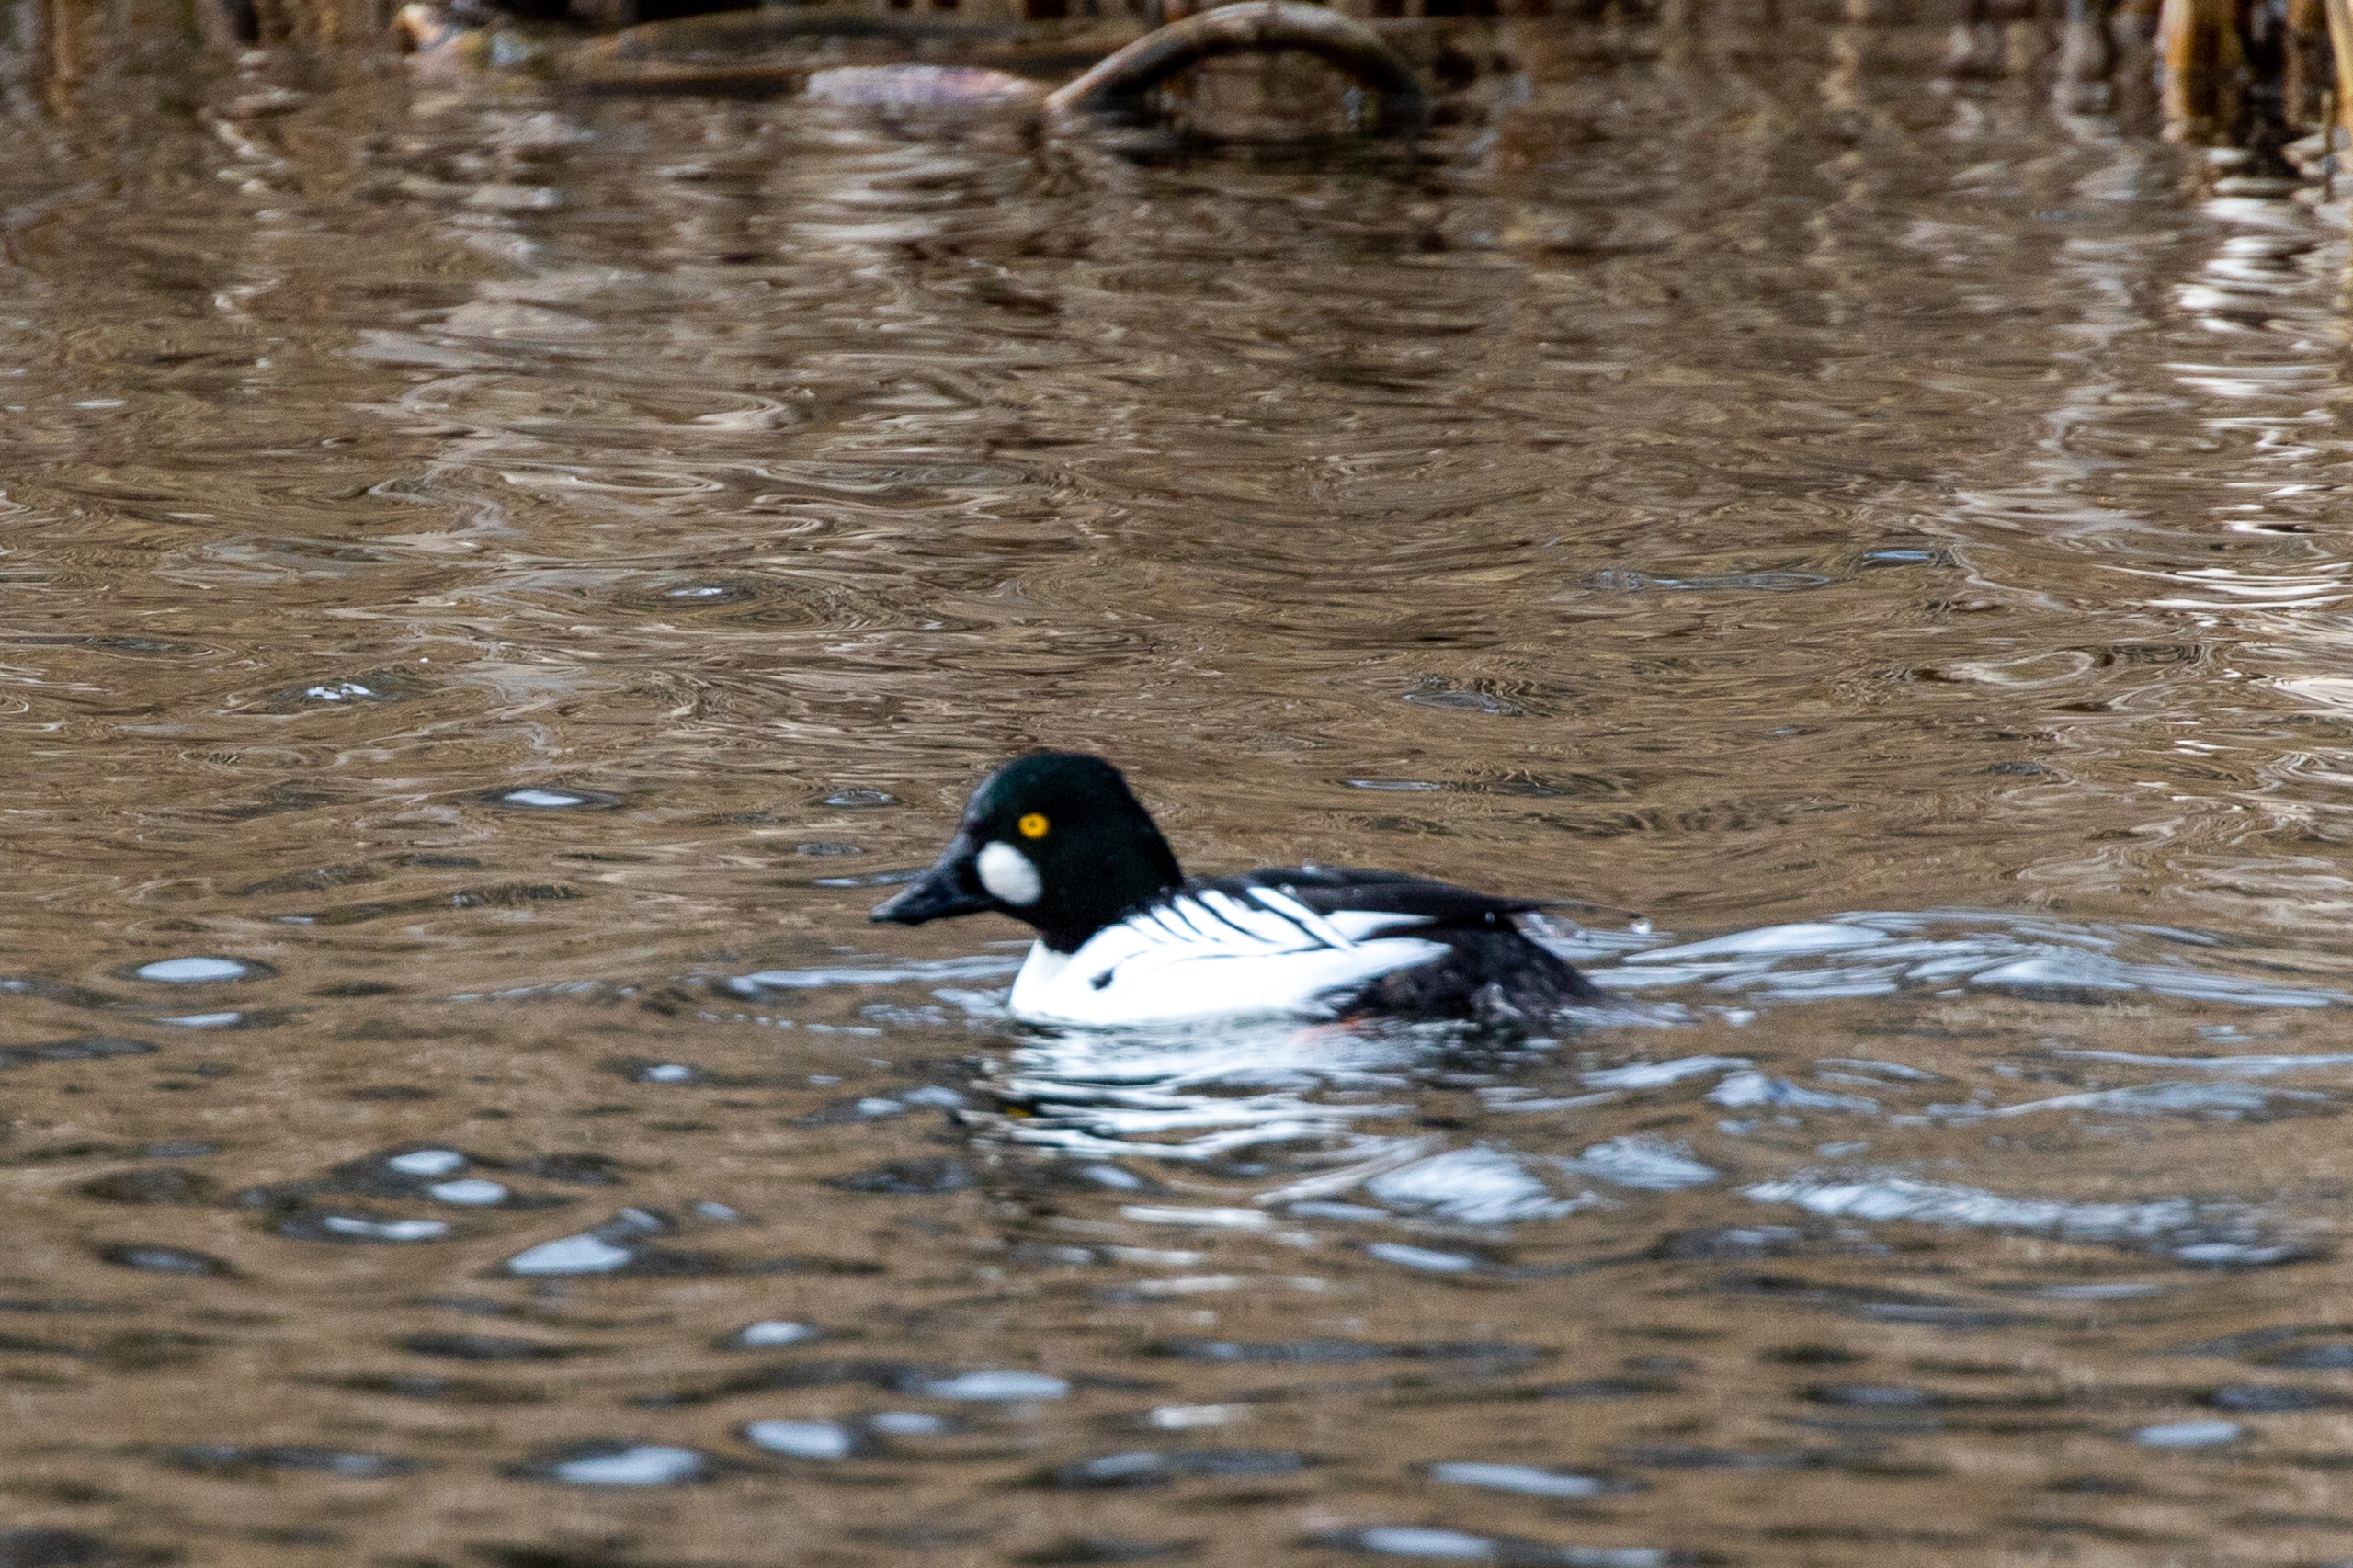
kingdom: Animalia
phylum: Chordata
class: Aves
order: Anseriformes
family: Anatidae
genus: Bucephala
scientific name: Bucephala clangula
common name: Hvinand
